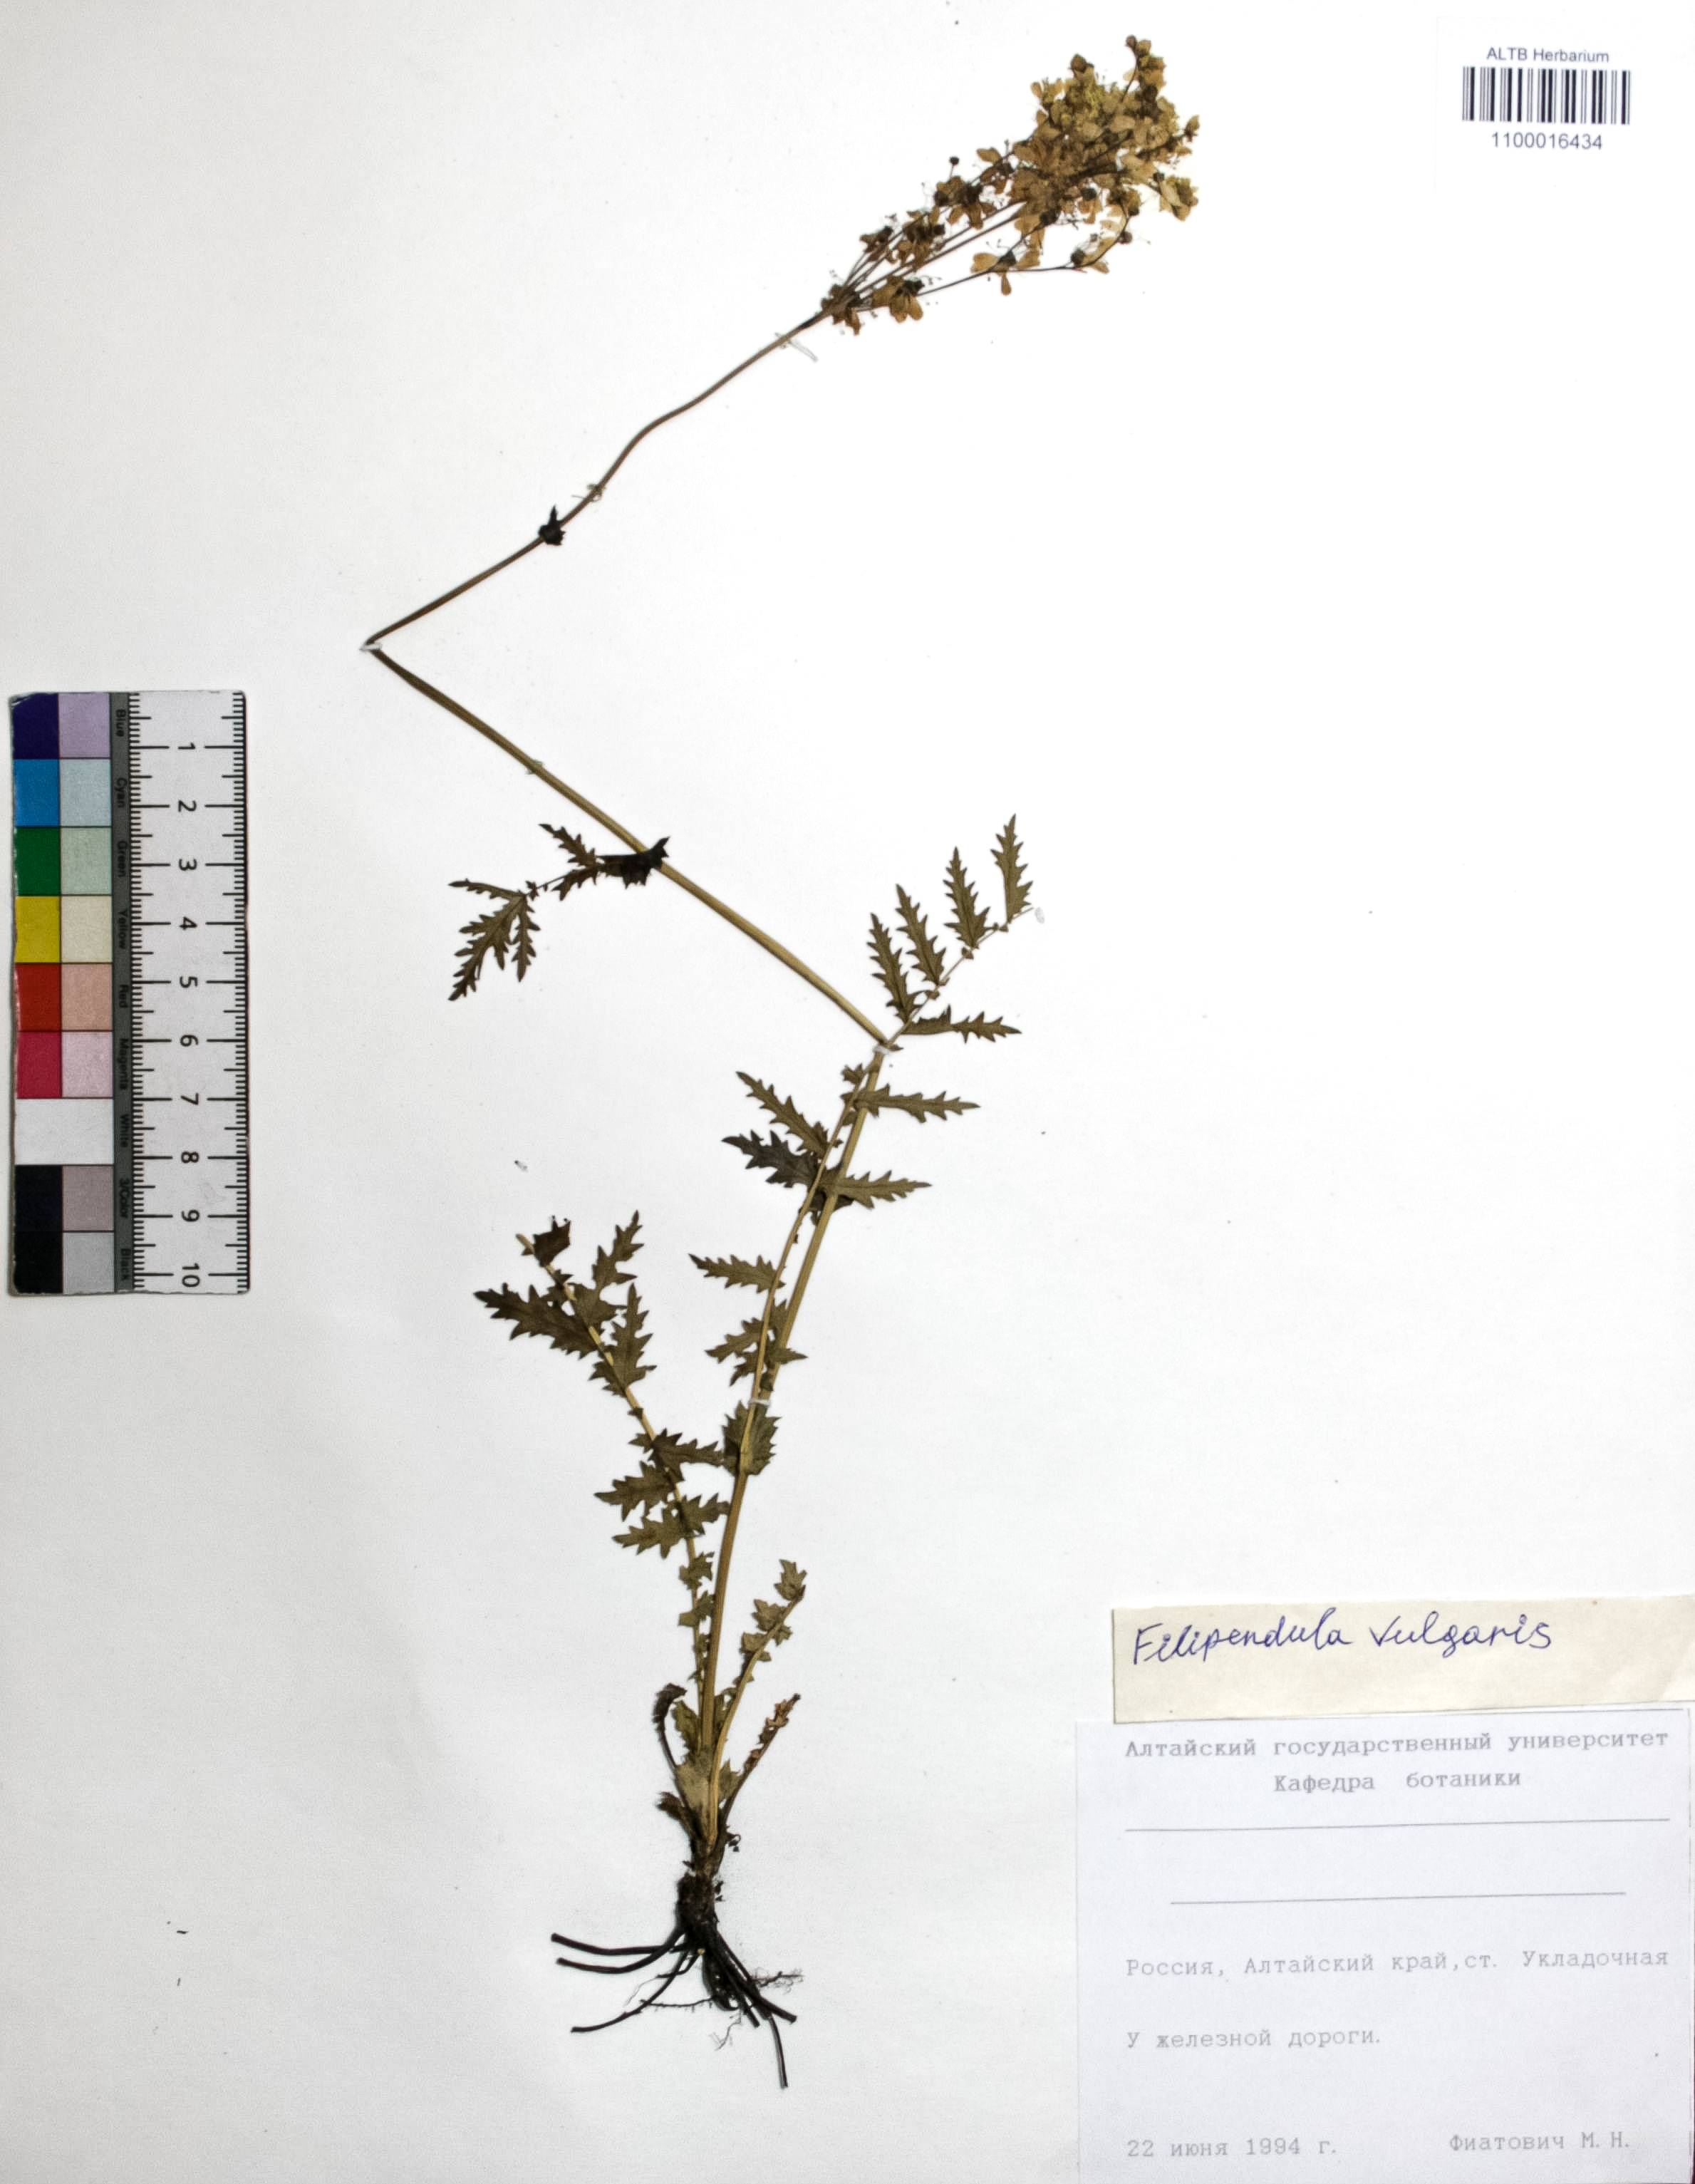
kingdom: Plantae
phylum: Tracheophyta
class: Magnoliopsida
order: Rosales
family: Rosaceae
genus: Filipendula
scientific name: Filipendula vulgaris
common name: Dropwort
